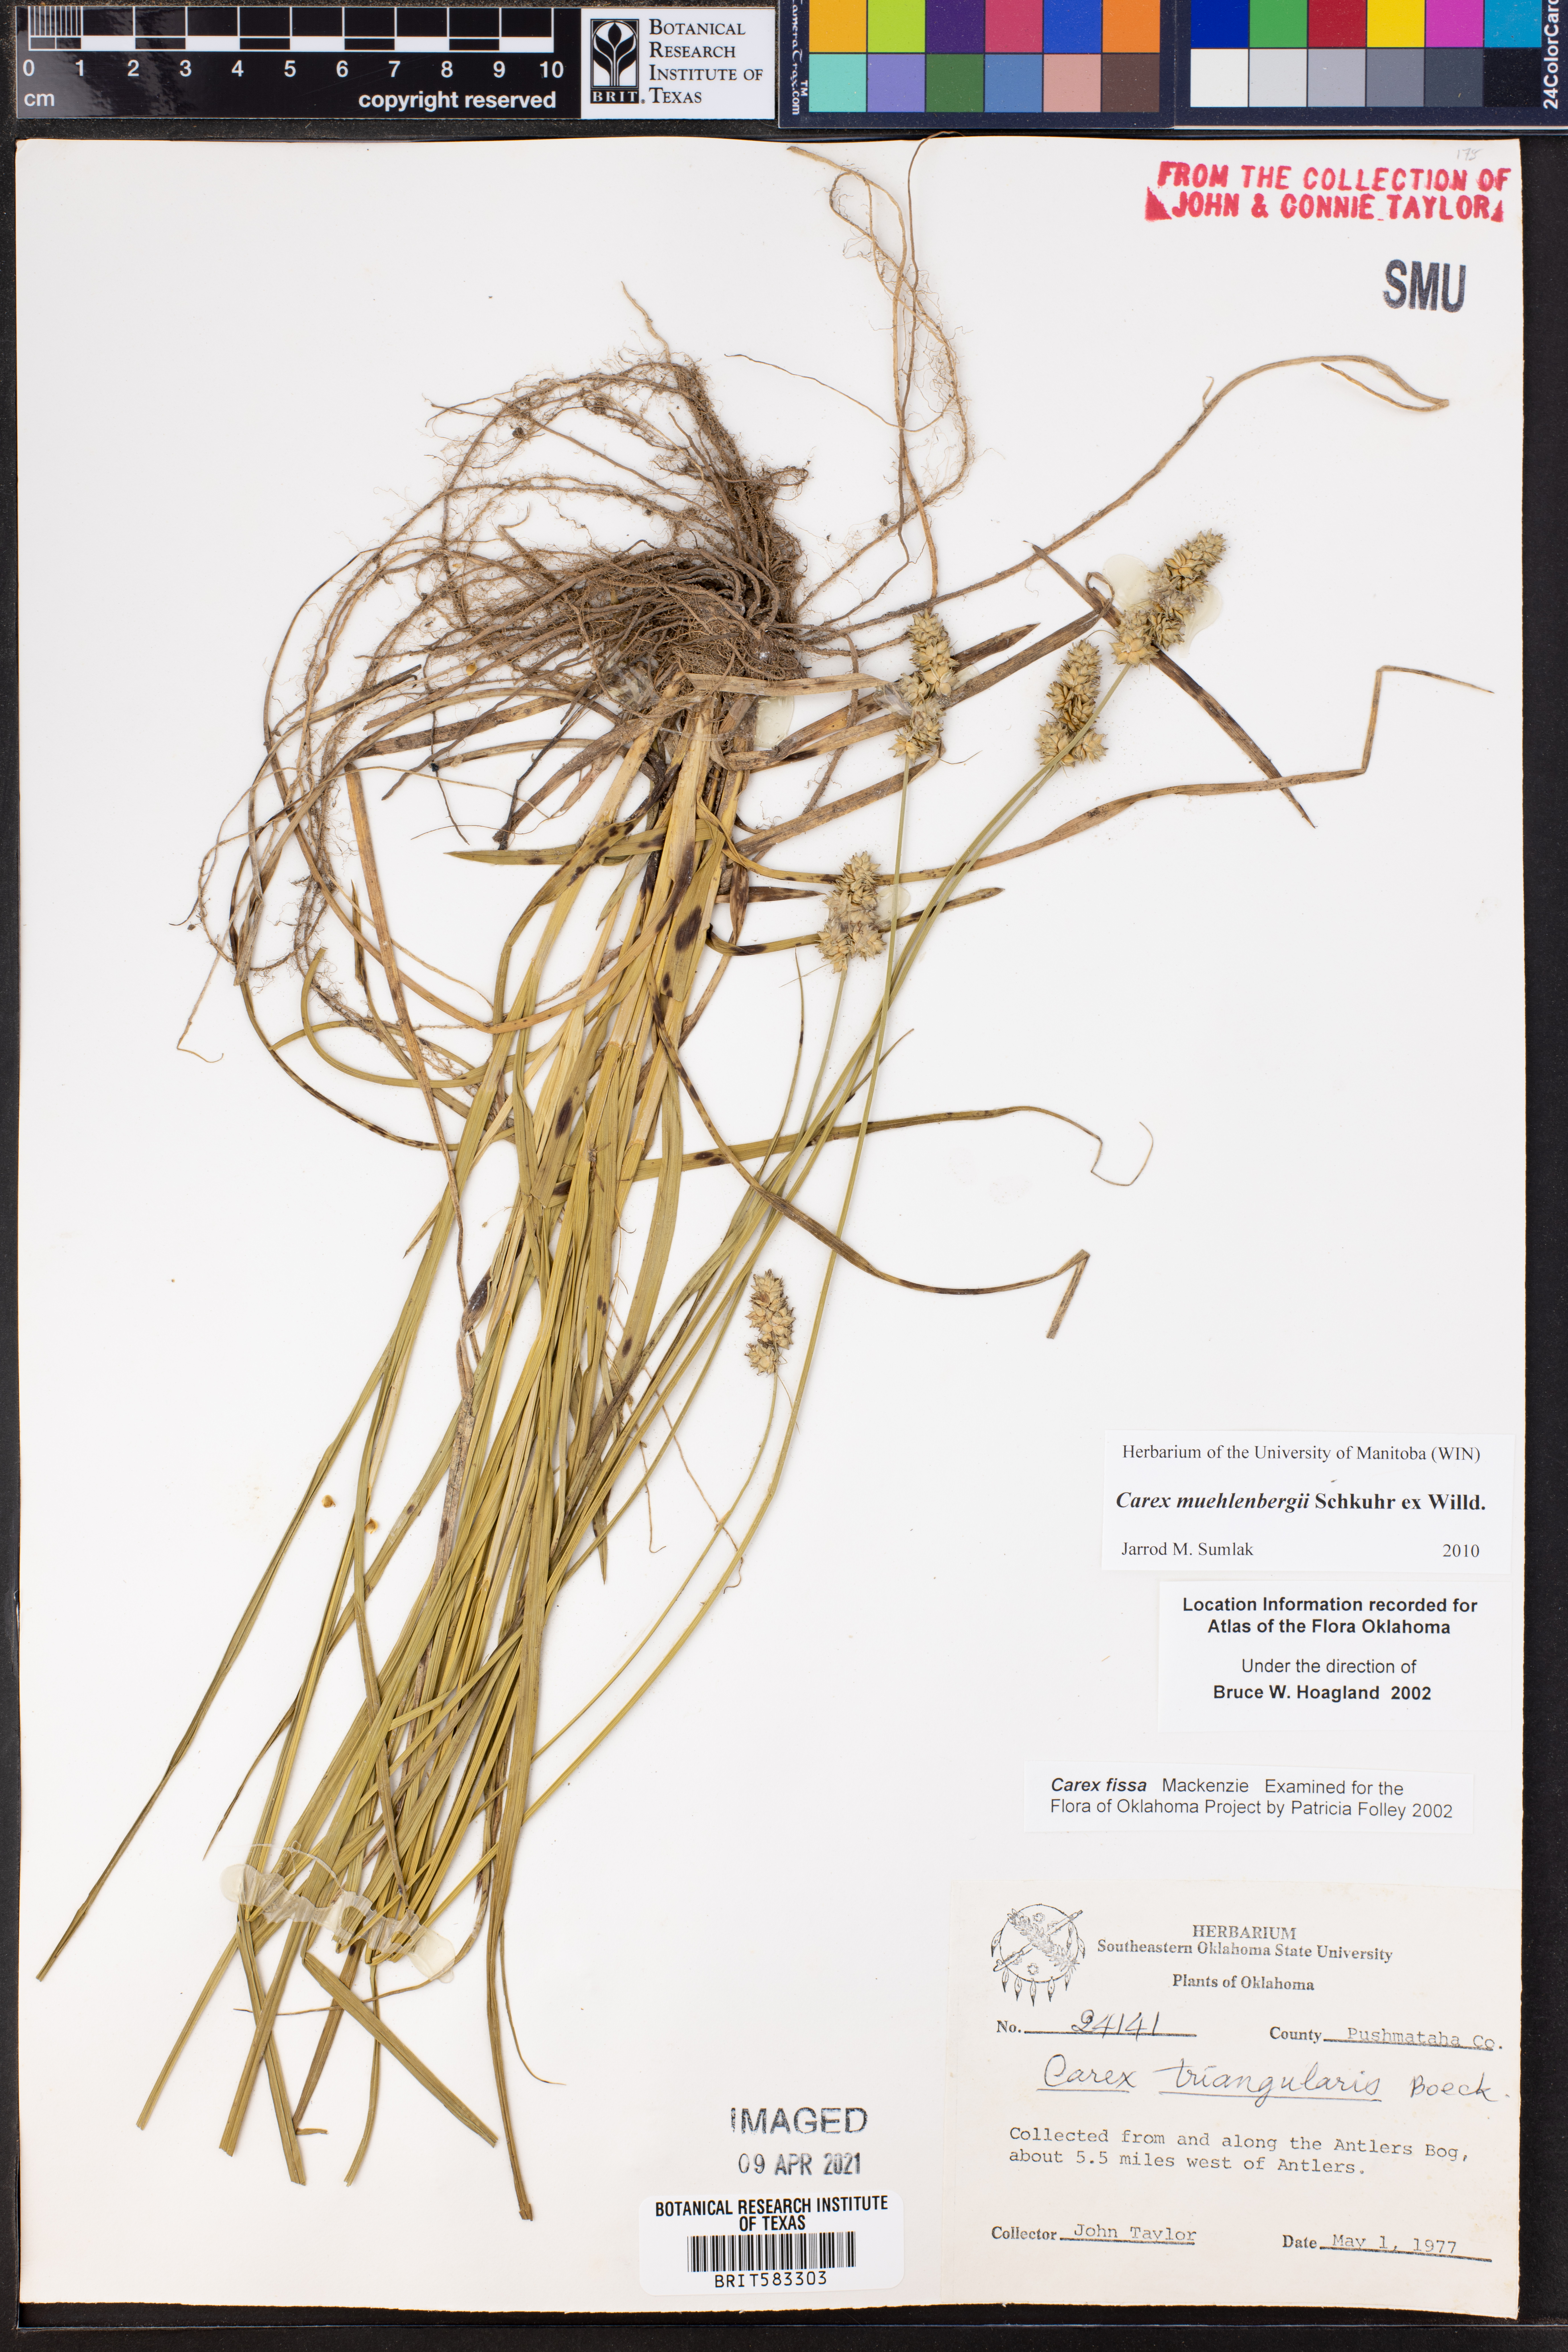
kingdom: Plantae
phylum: Tracheophyta
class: Liliopsida
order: Poales
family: Cyperaceae
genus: Carex
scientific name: Carex fissa
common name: Hammock sedge
